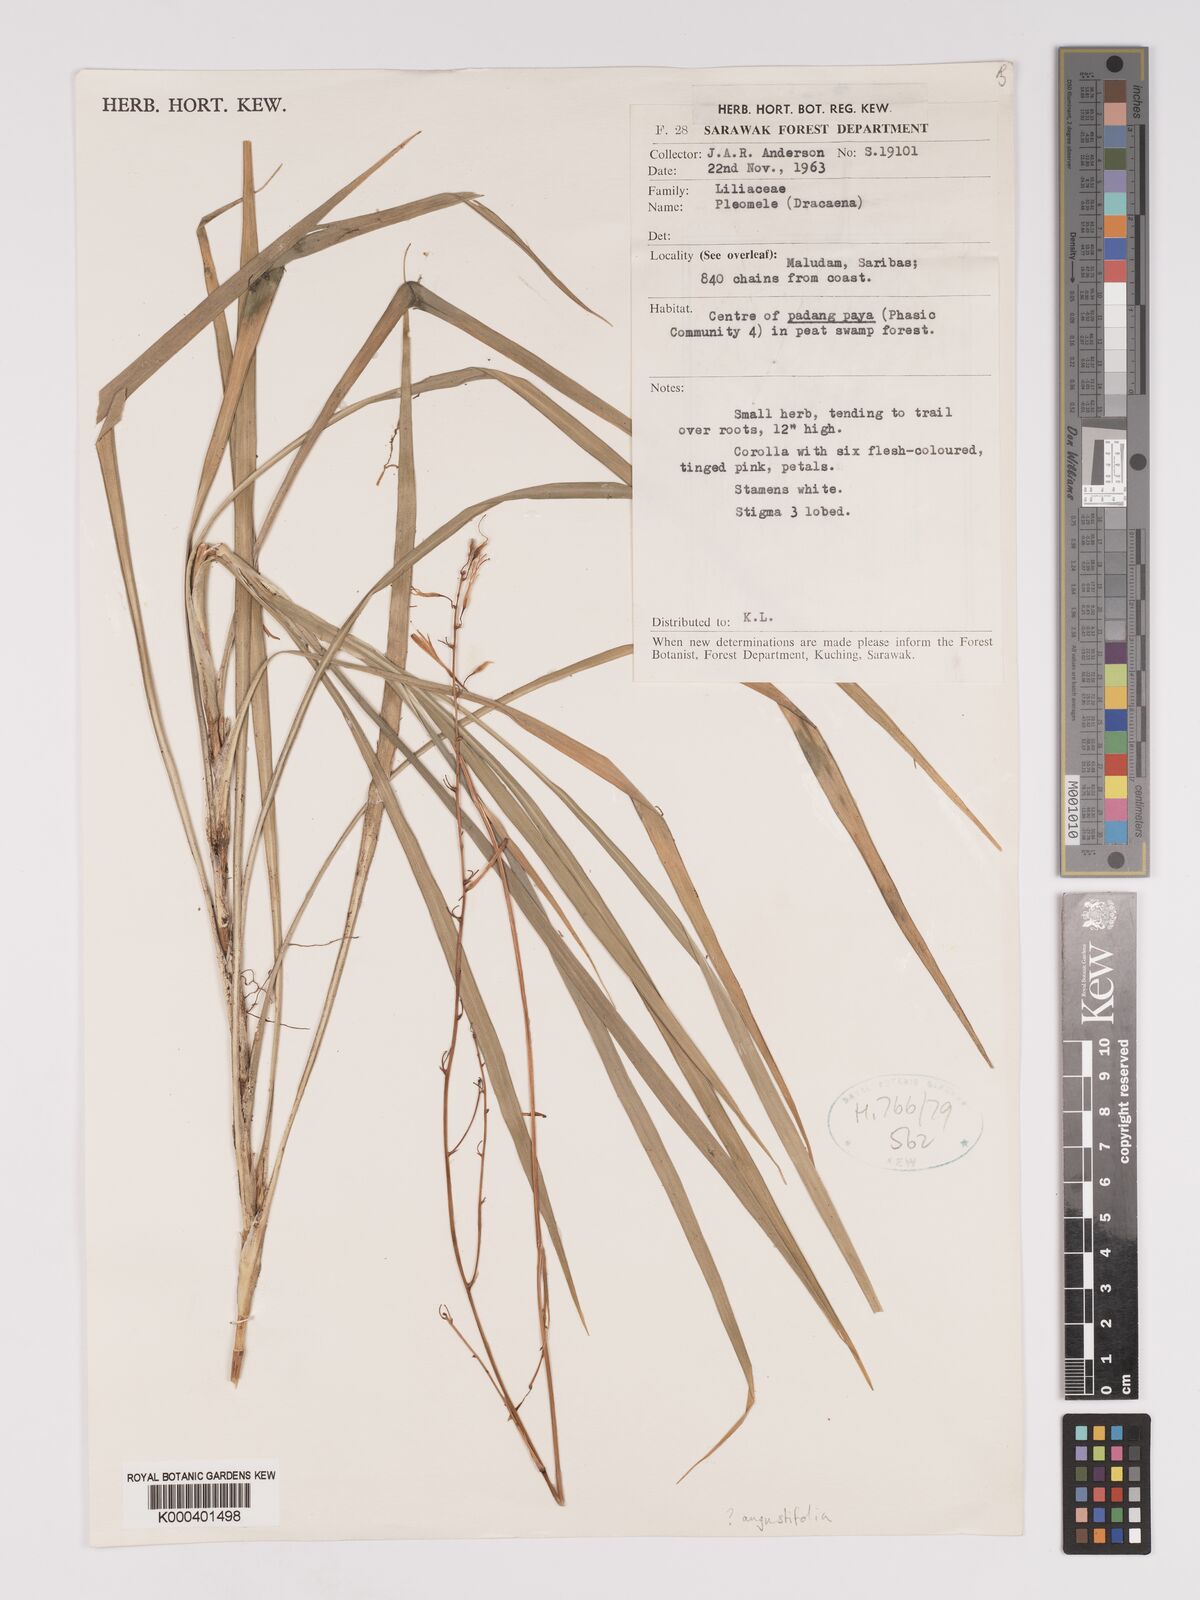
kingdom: Plantae
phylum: Tracheophyta
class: Liliopsida
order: Asparagales
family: Asparagaceae
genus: Dracaena
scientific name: Dracaena angustifolia
